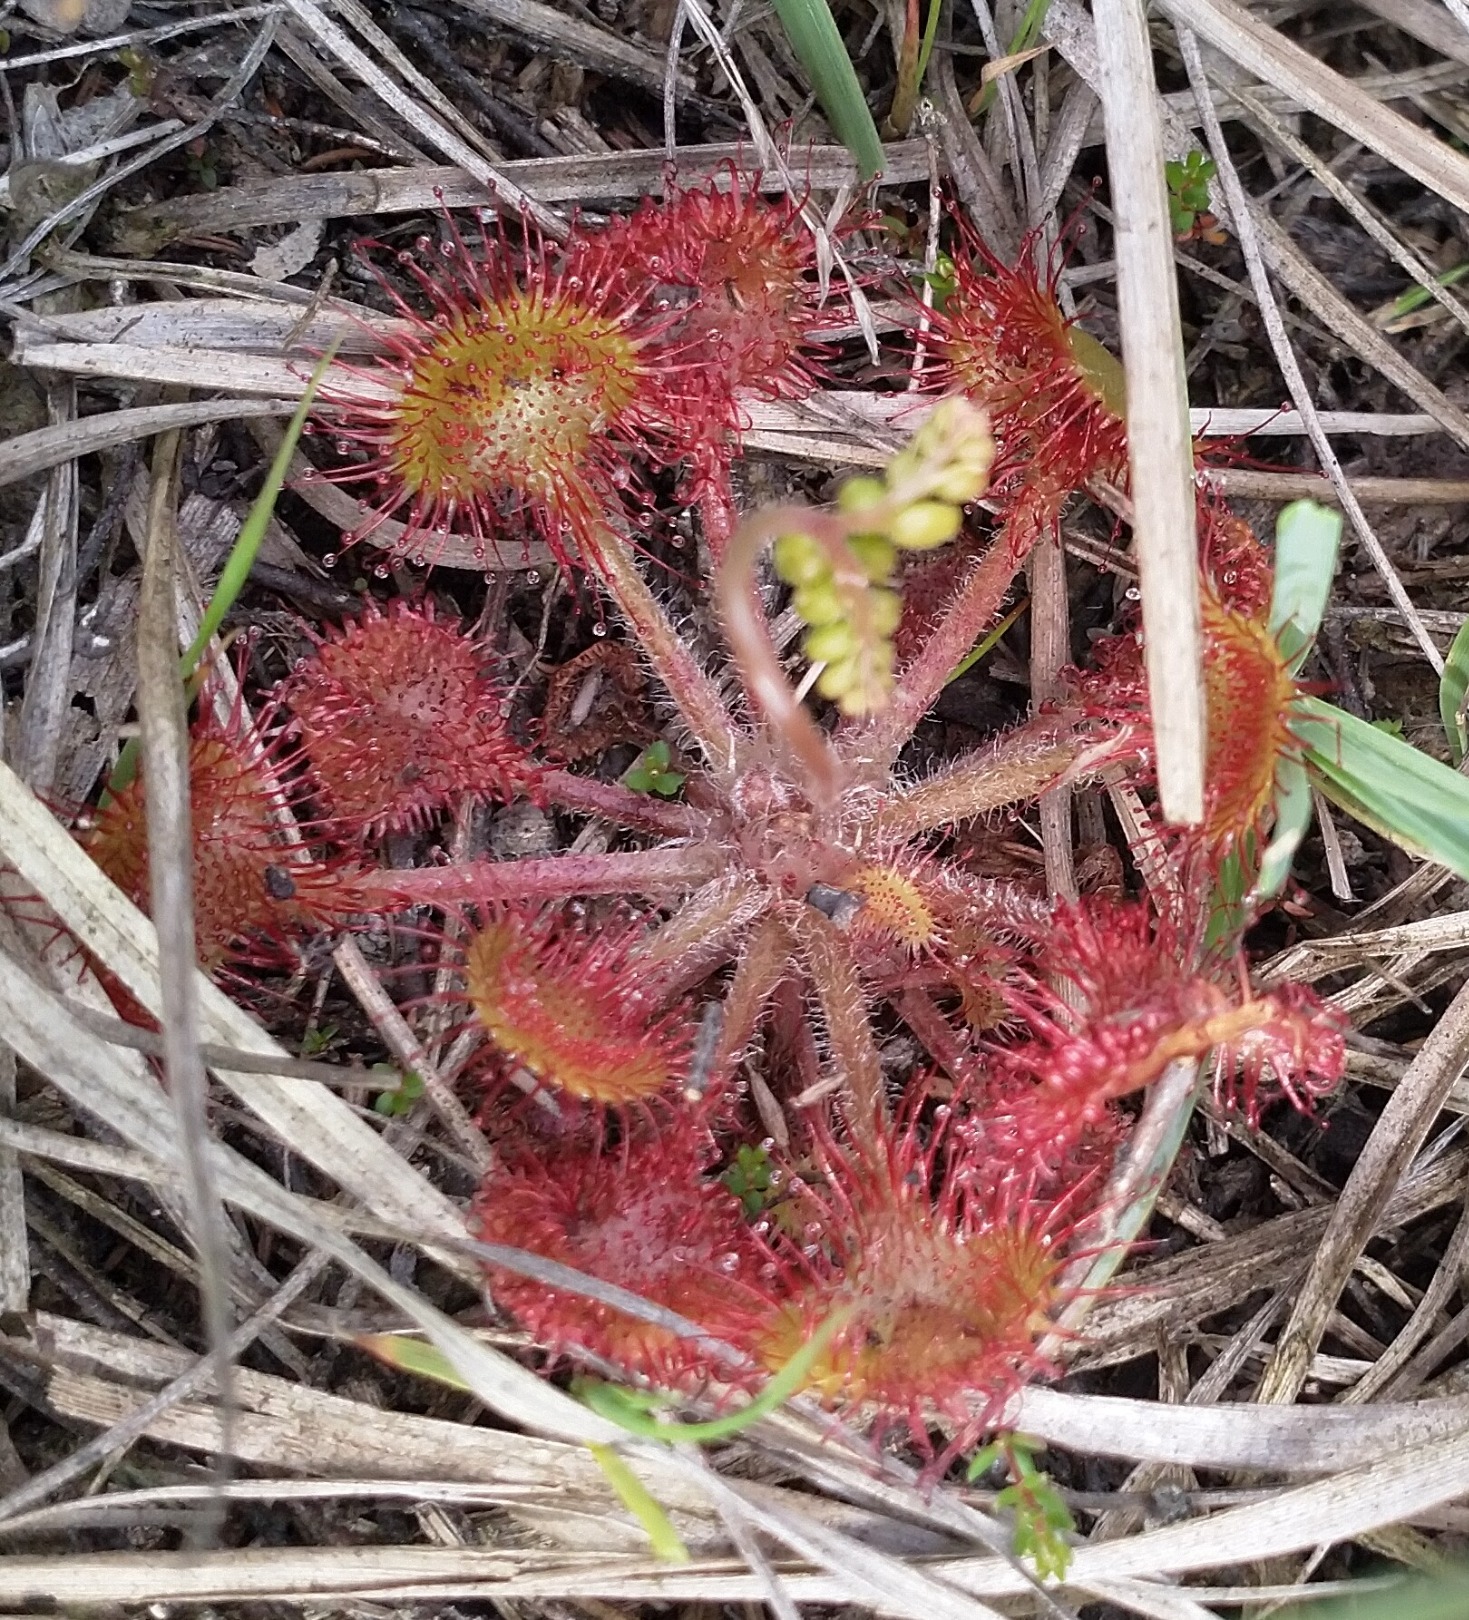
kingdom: Plantae
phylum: Tracheophyta
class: Magnoliopsida
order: Caryophyllales
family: Droseraceae
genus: Drosera
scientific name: Drosera rotundifolia
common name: Rundbladet soldug
